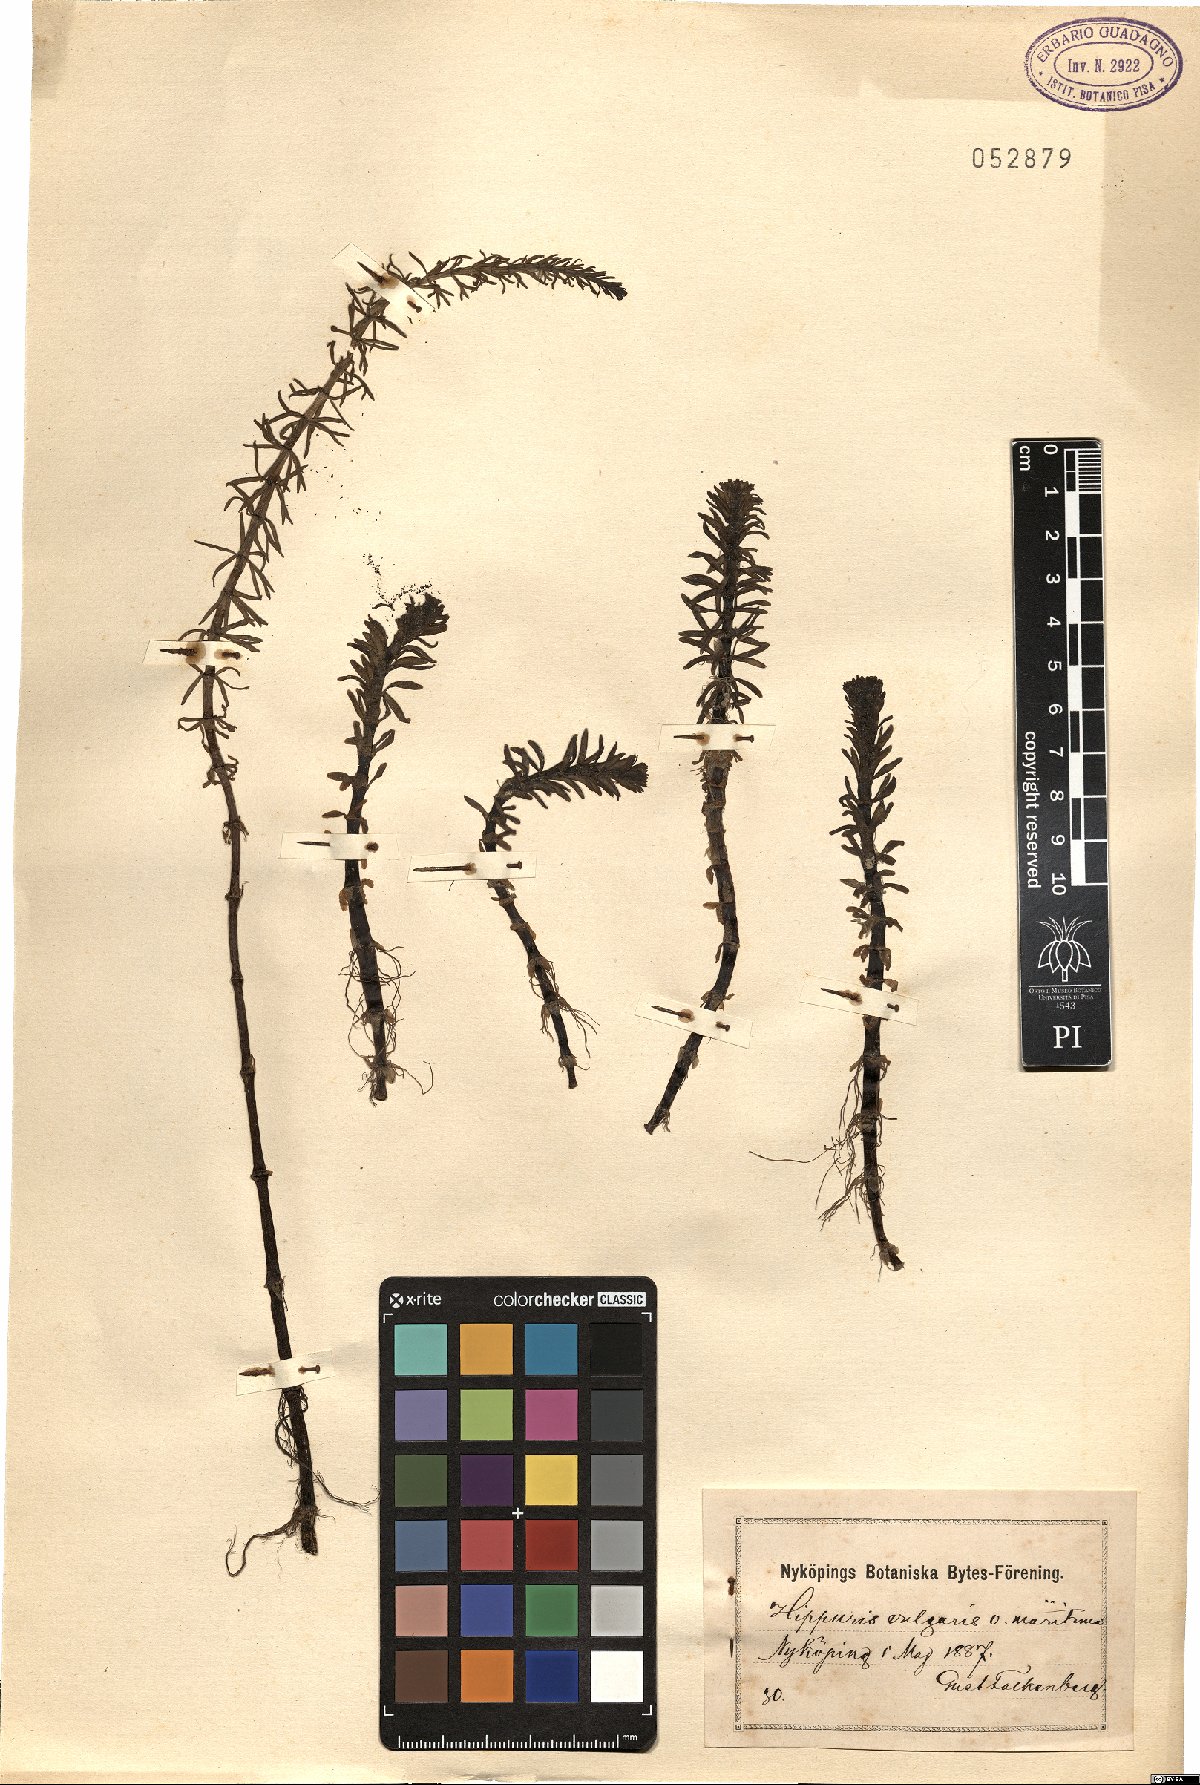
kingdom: Plantae
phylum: Tracheophyta
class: Magnoliopsida
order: Lamiales
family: Plantaginaceae
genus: Hippuris
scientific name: Hippuris vulgaris
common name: Mare's-tail
